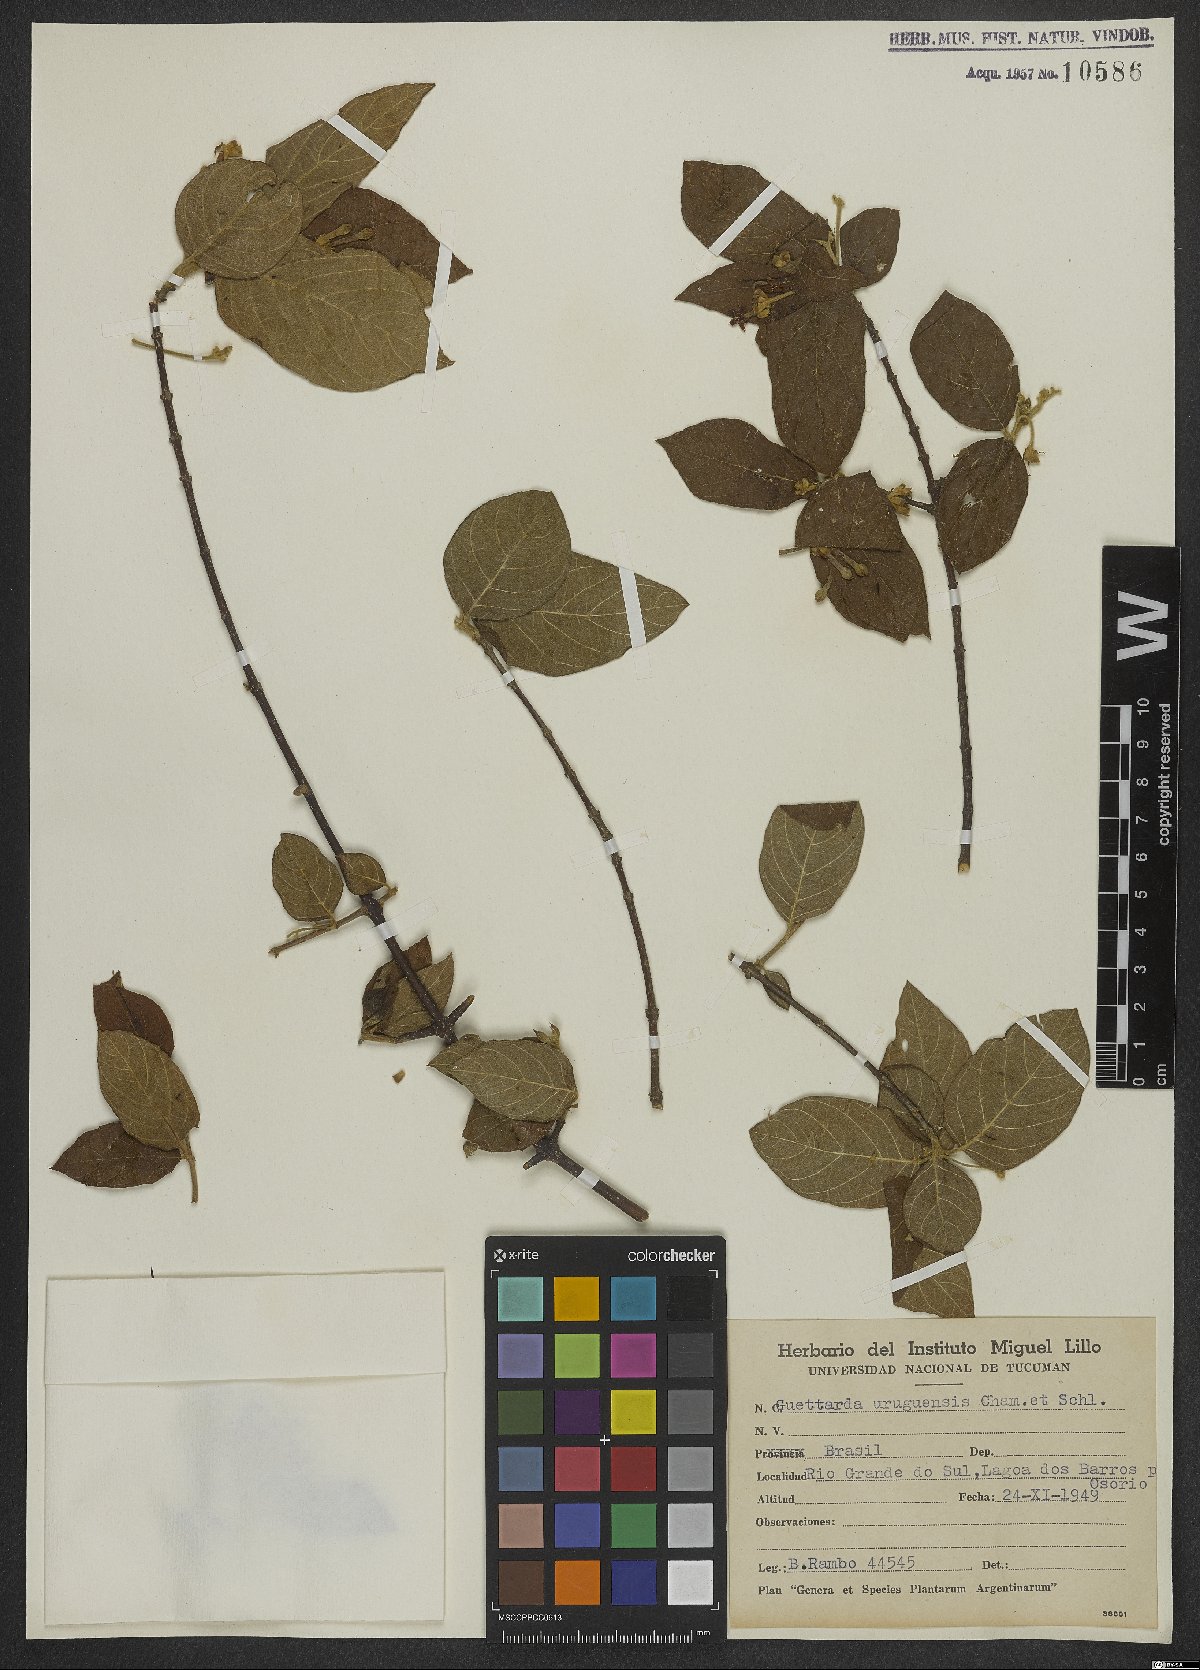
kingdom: Plantae
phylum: Tracheophyta
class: Magnoliopsida
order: Gentianales
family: Rubiaceae
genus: Guettarda
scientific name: Guettarda uruguensis
